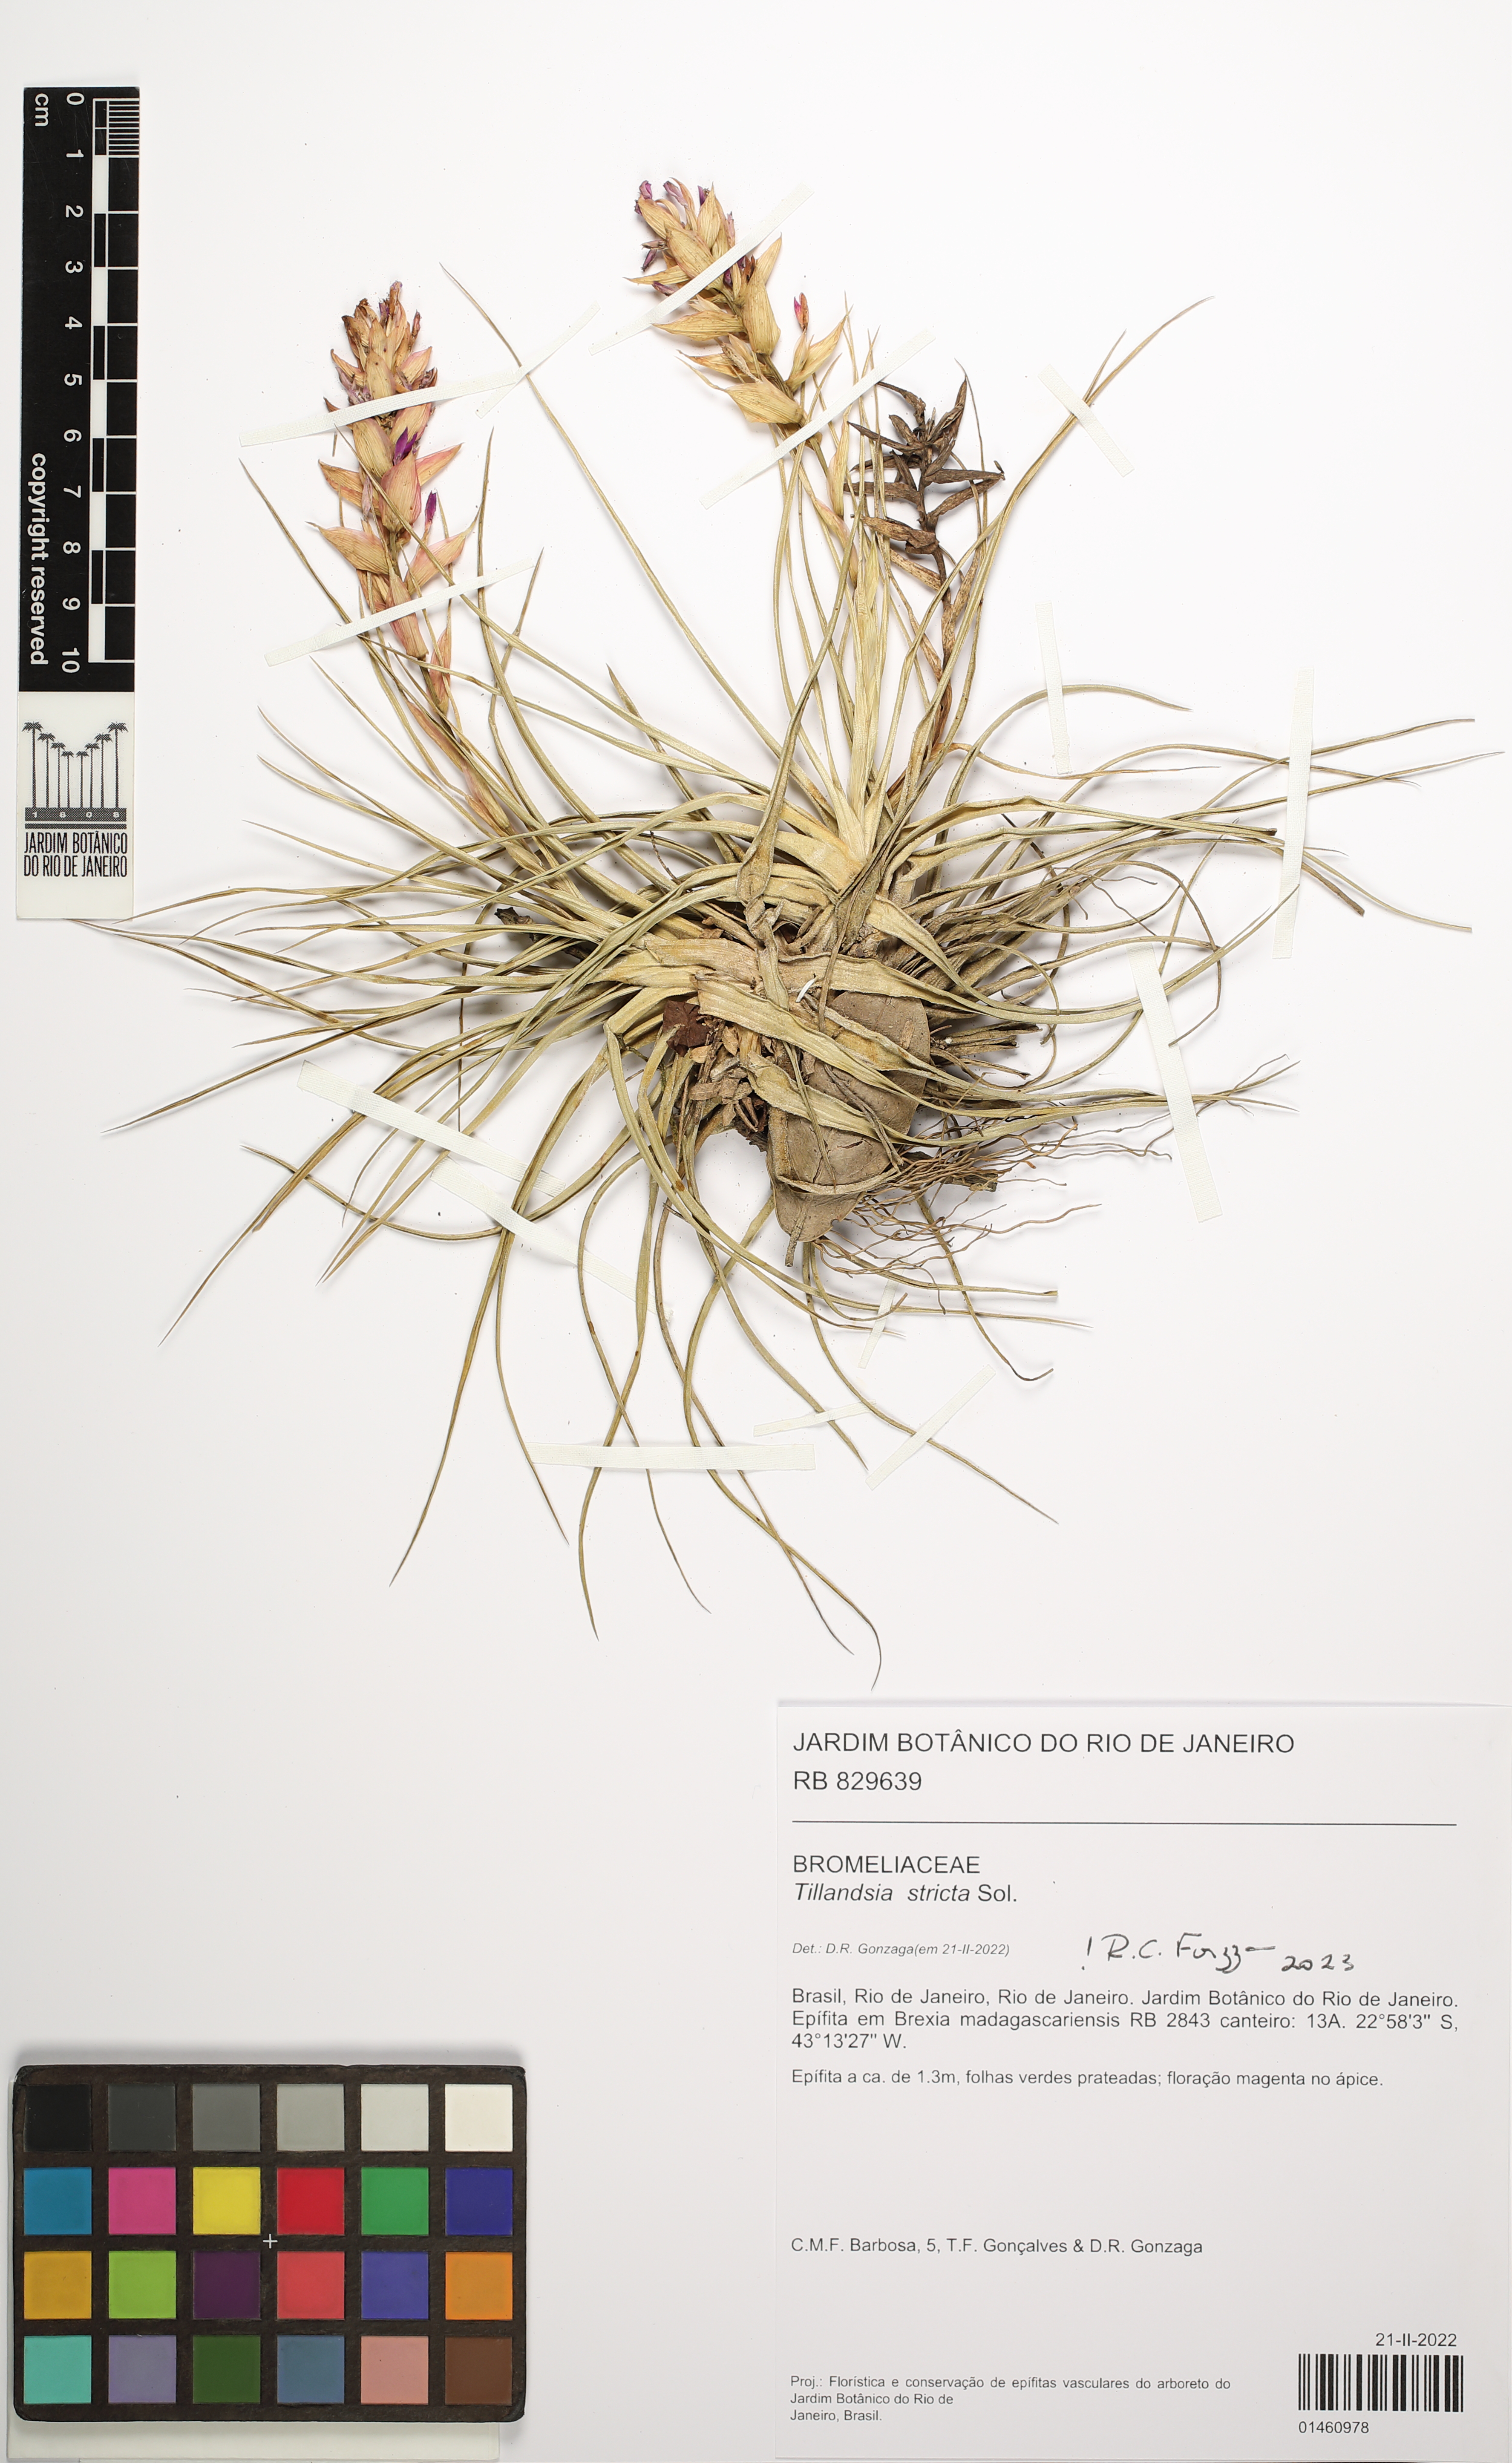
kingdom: Plantae
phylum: Tracheophyta
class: Liliopsida
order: Poales
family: Bromeliaceae
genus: Tillandsia
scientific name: Tillandsia stricta
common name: Airplant
